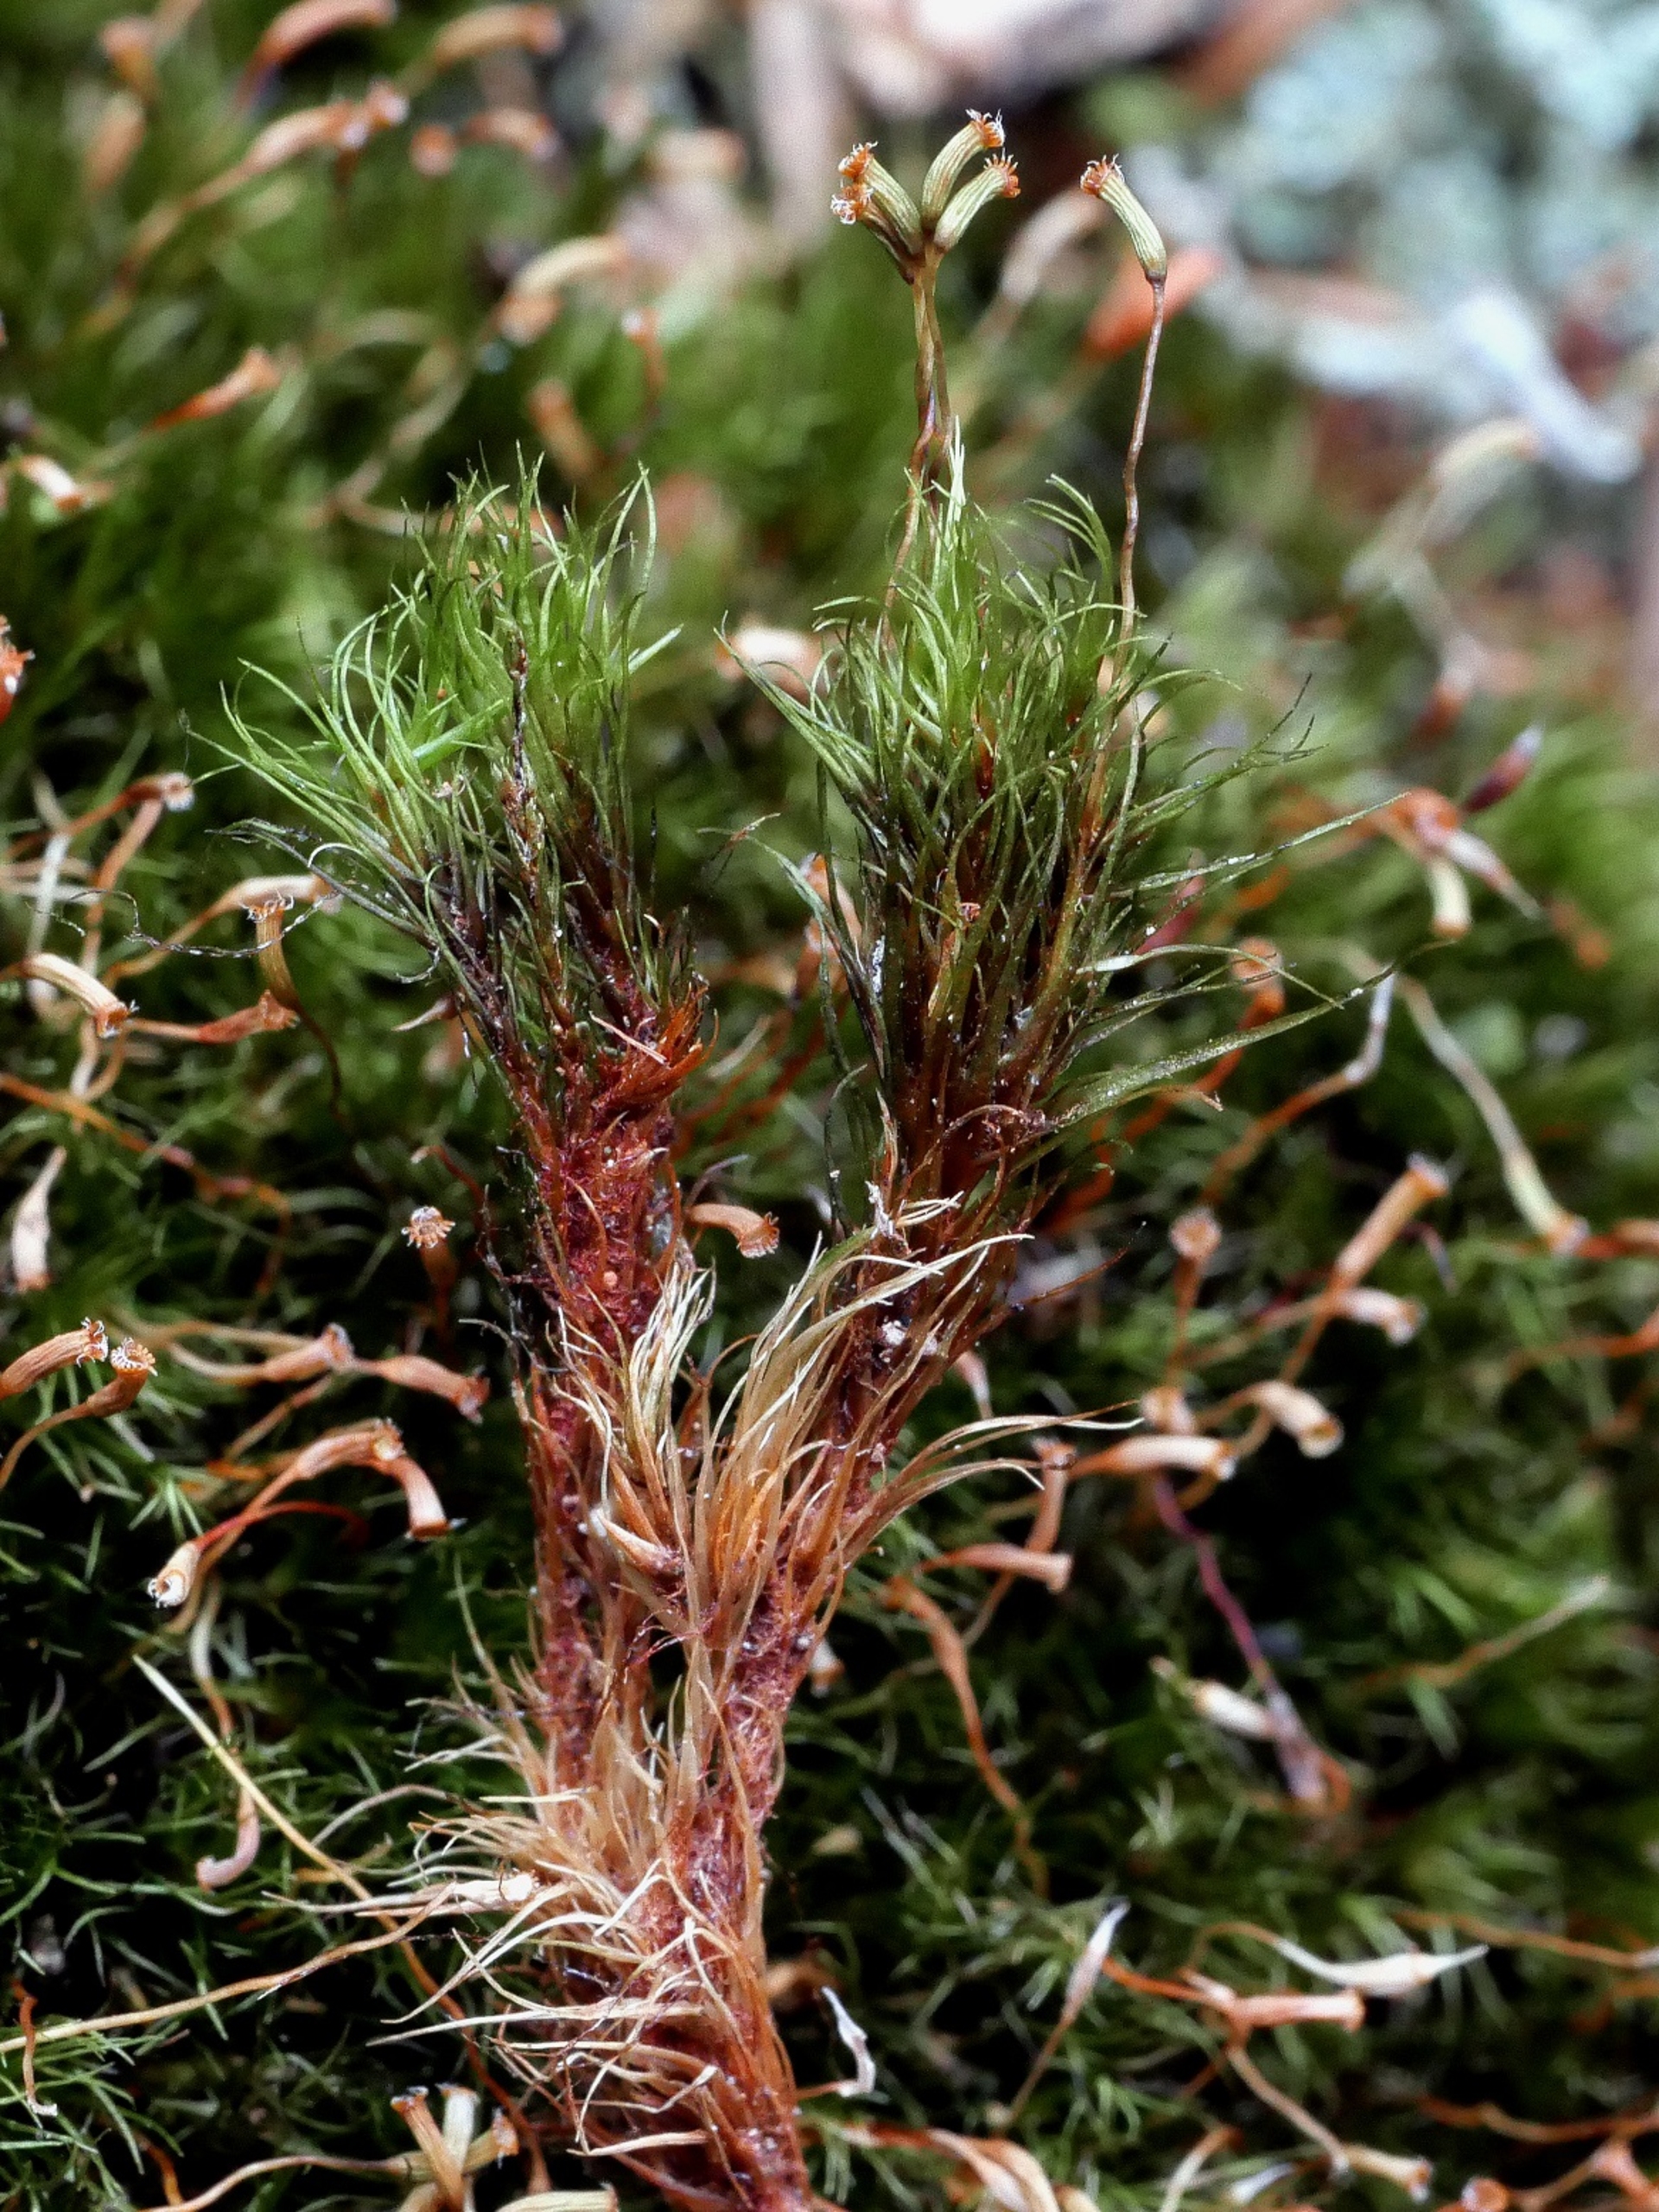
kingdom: Plantae
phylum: Bryophyta
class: Bryopsida
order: Dicranales
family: Leucobryaceae
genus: Campylopus
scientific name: Campylopus flexuosus
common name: Filtet bredribbe
